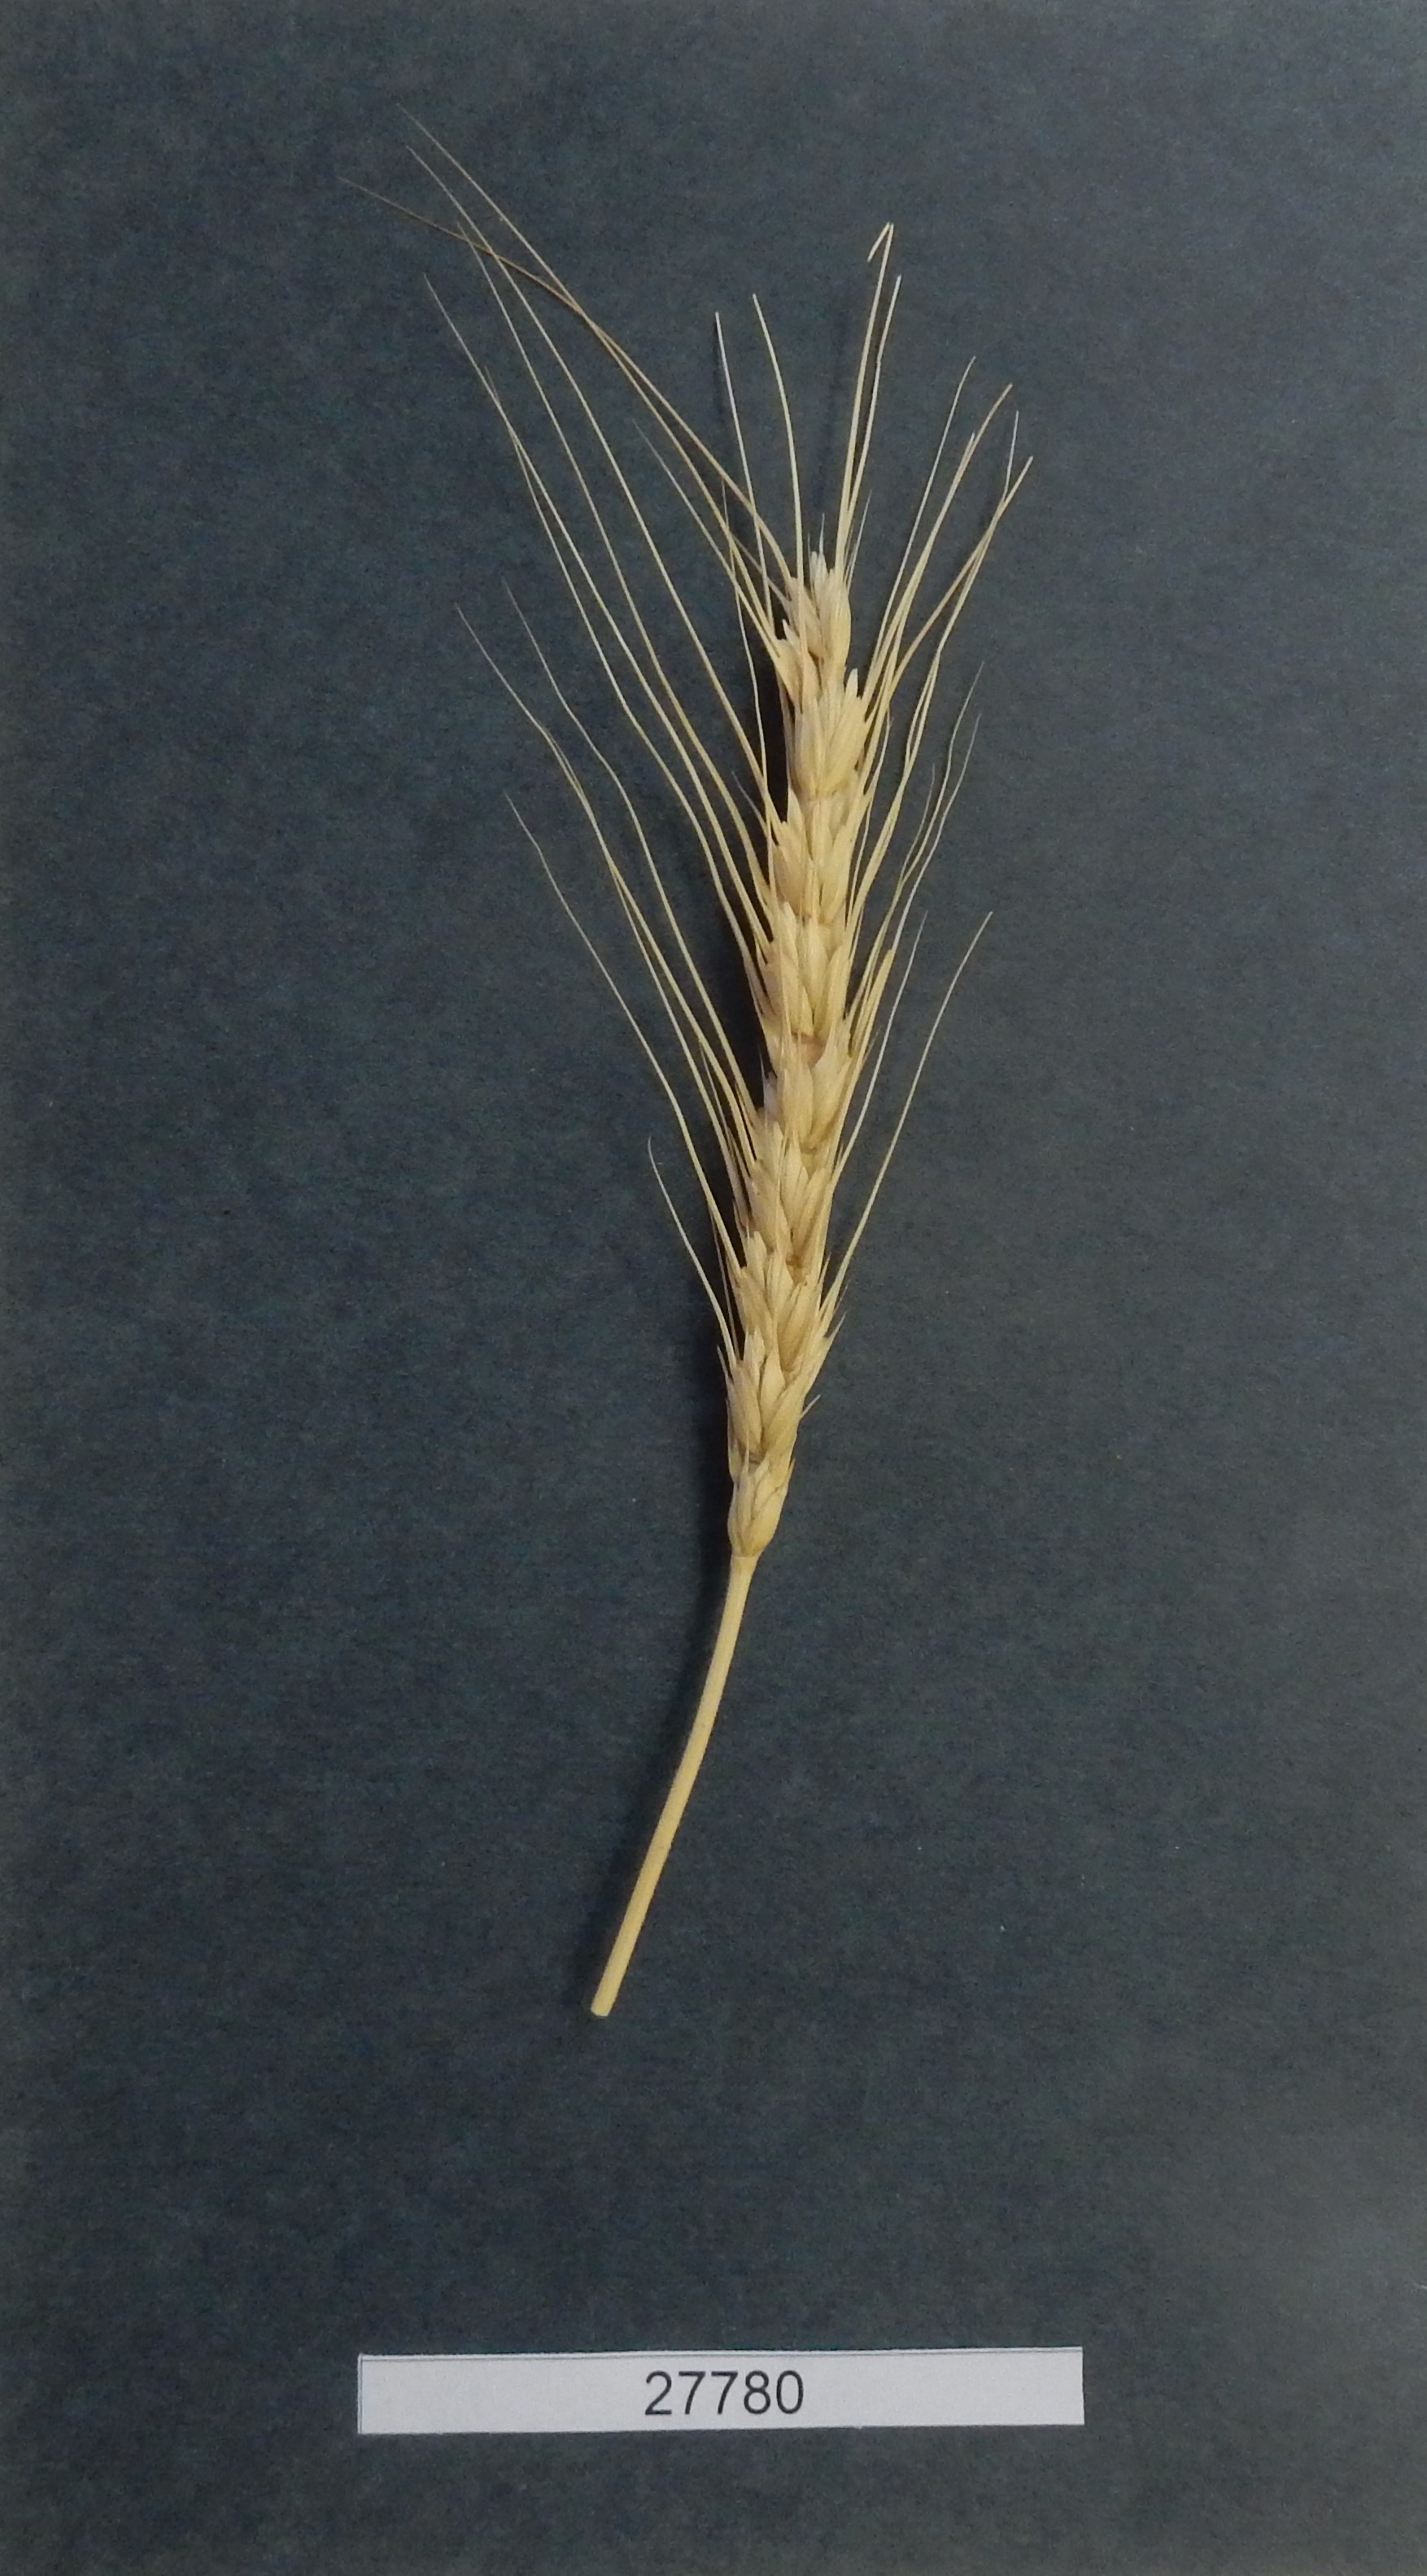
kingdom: Plantae
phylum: Tracheophyta
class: Liliopsida
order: Poales
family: Poaceae
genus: Triticum
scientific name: Triticum aestivum
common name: Common wheat
